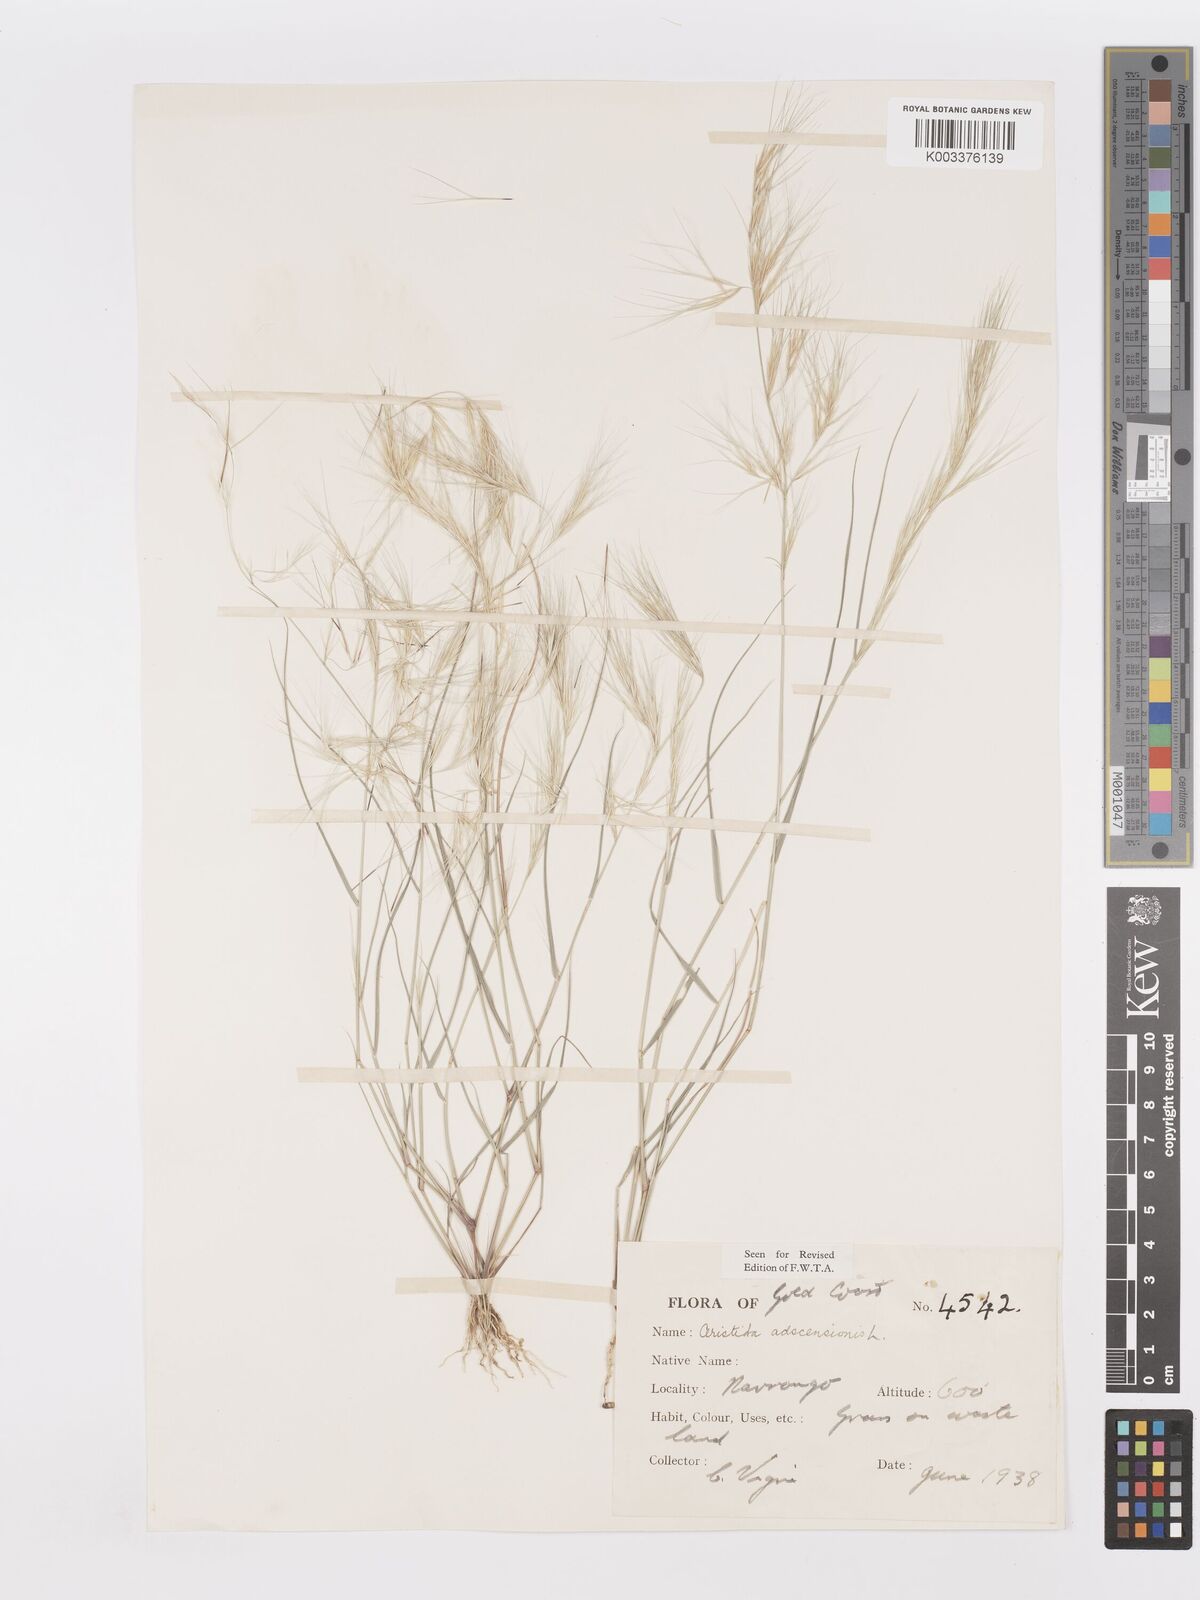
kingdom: Plantae
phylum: Tracheophyta
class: Liliopsida
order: Poales
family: Poaceae
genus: Aristida
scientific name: Aristida adscensionis
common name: Sixweeks threeawn
